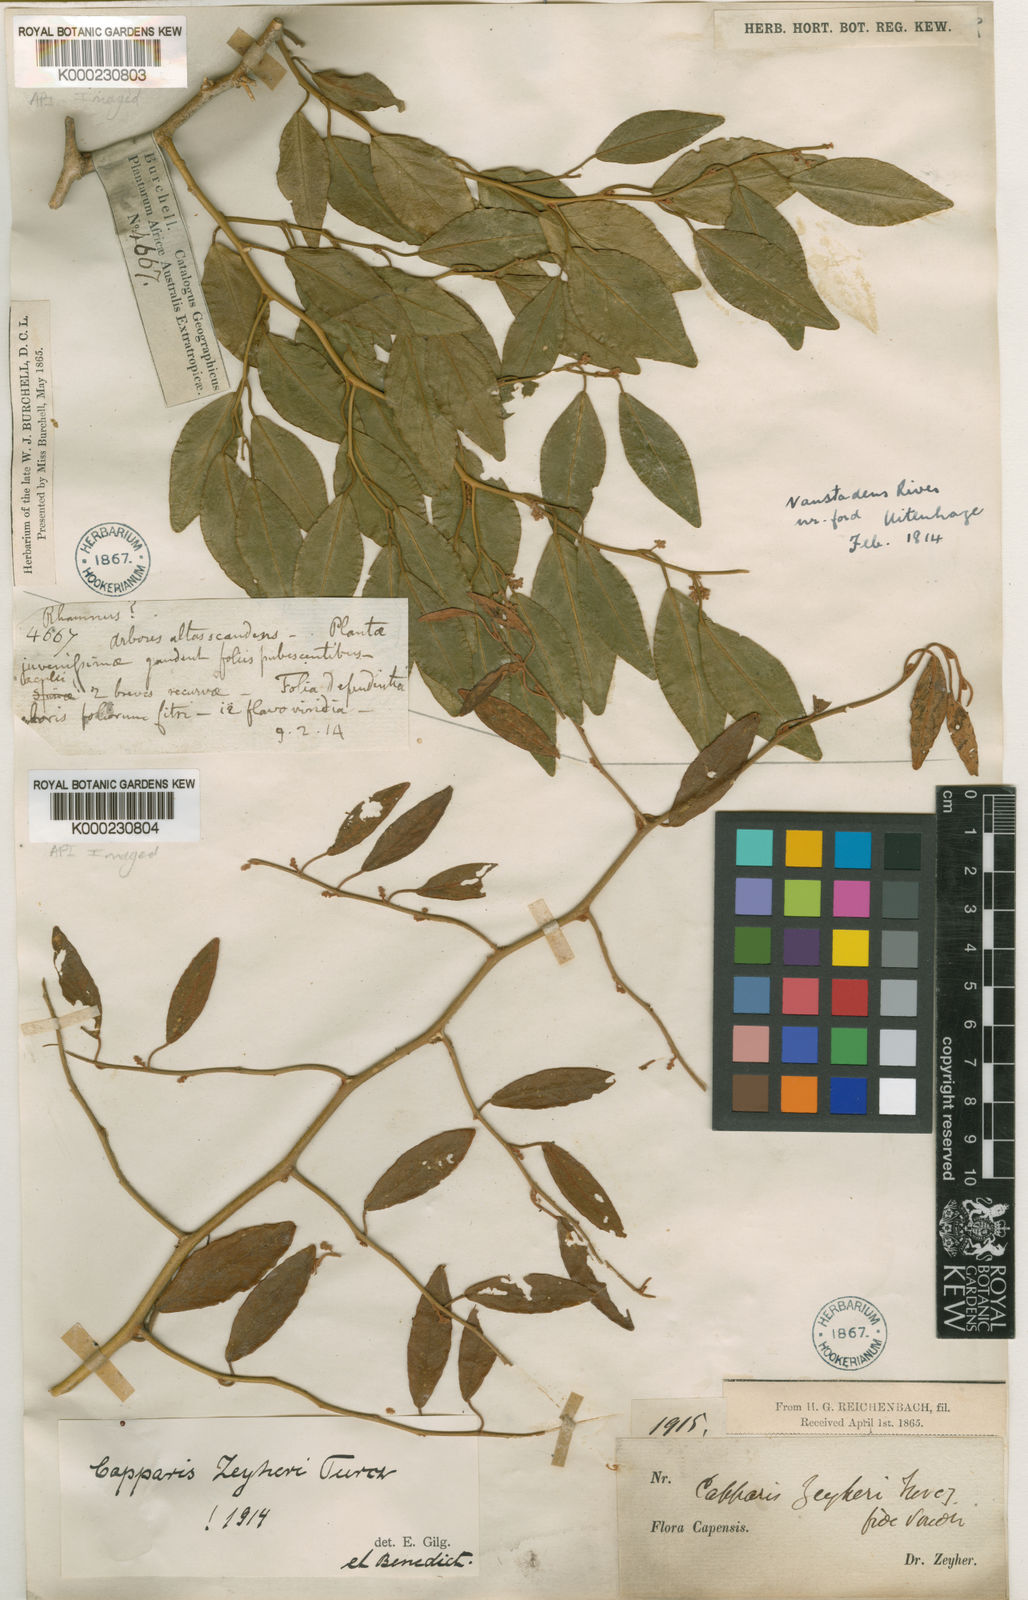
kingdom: Plantae
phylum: Tracheophyta
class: Magnoliopsida
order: Brassicales
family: Capparaceae
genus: Capparis
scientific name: Capparis fascicularis
